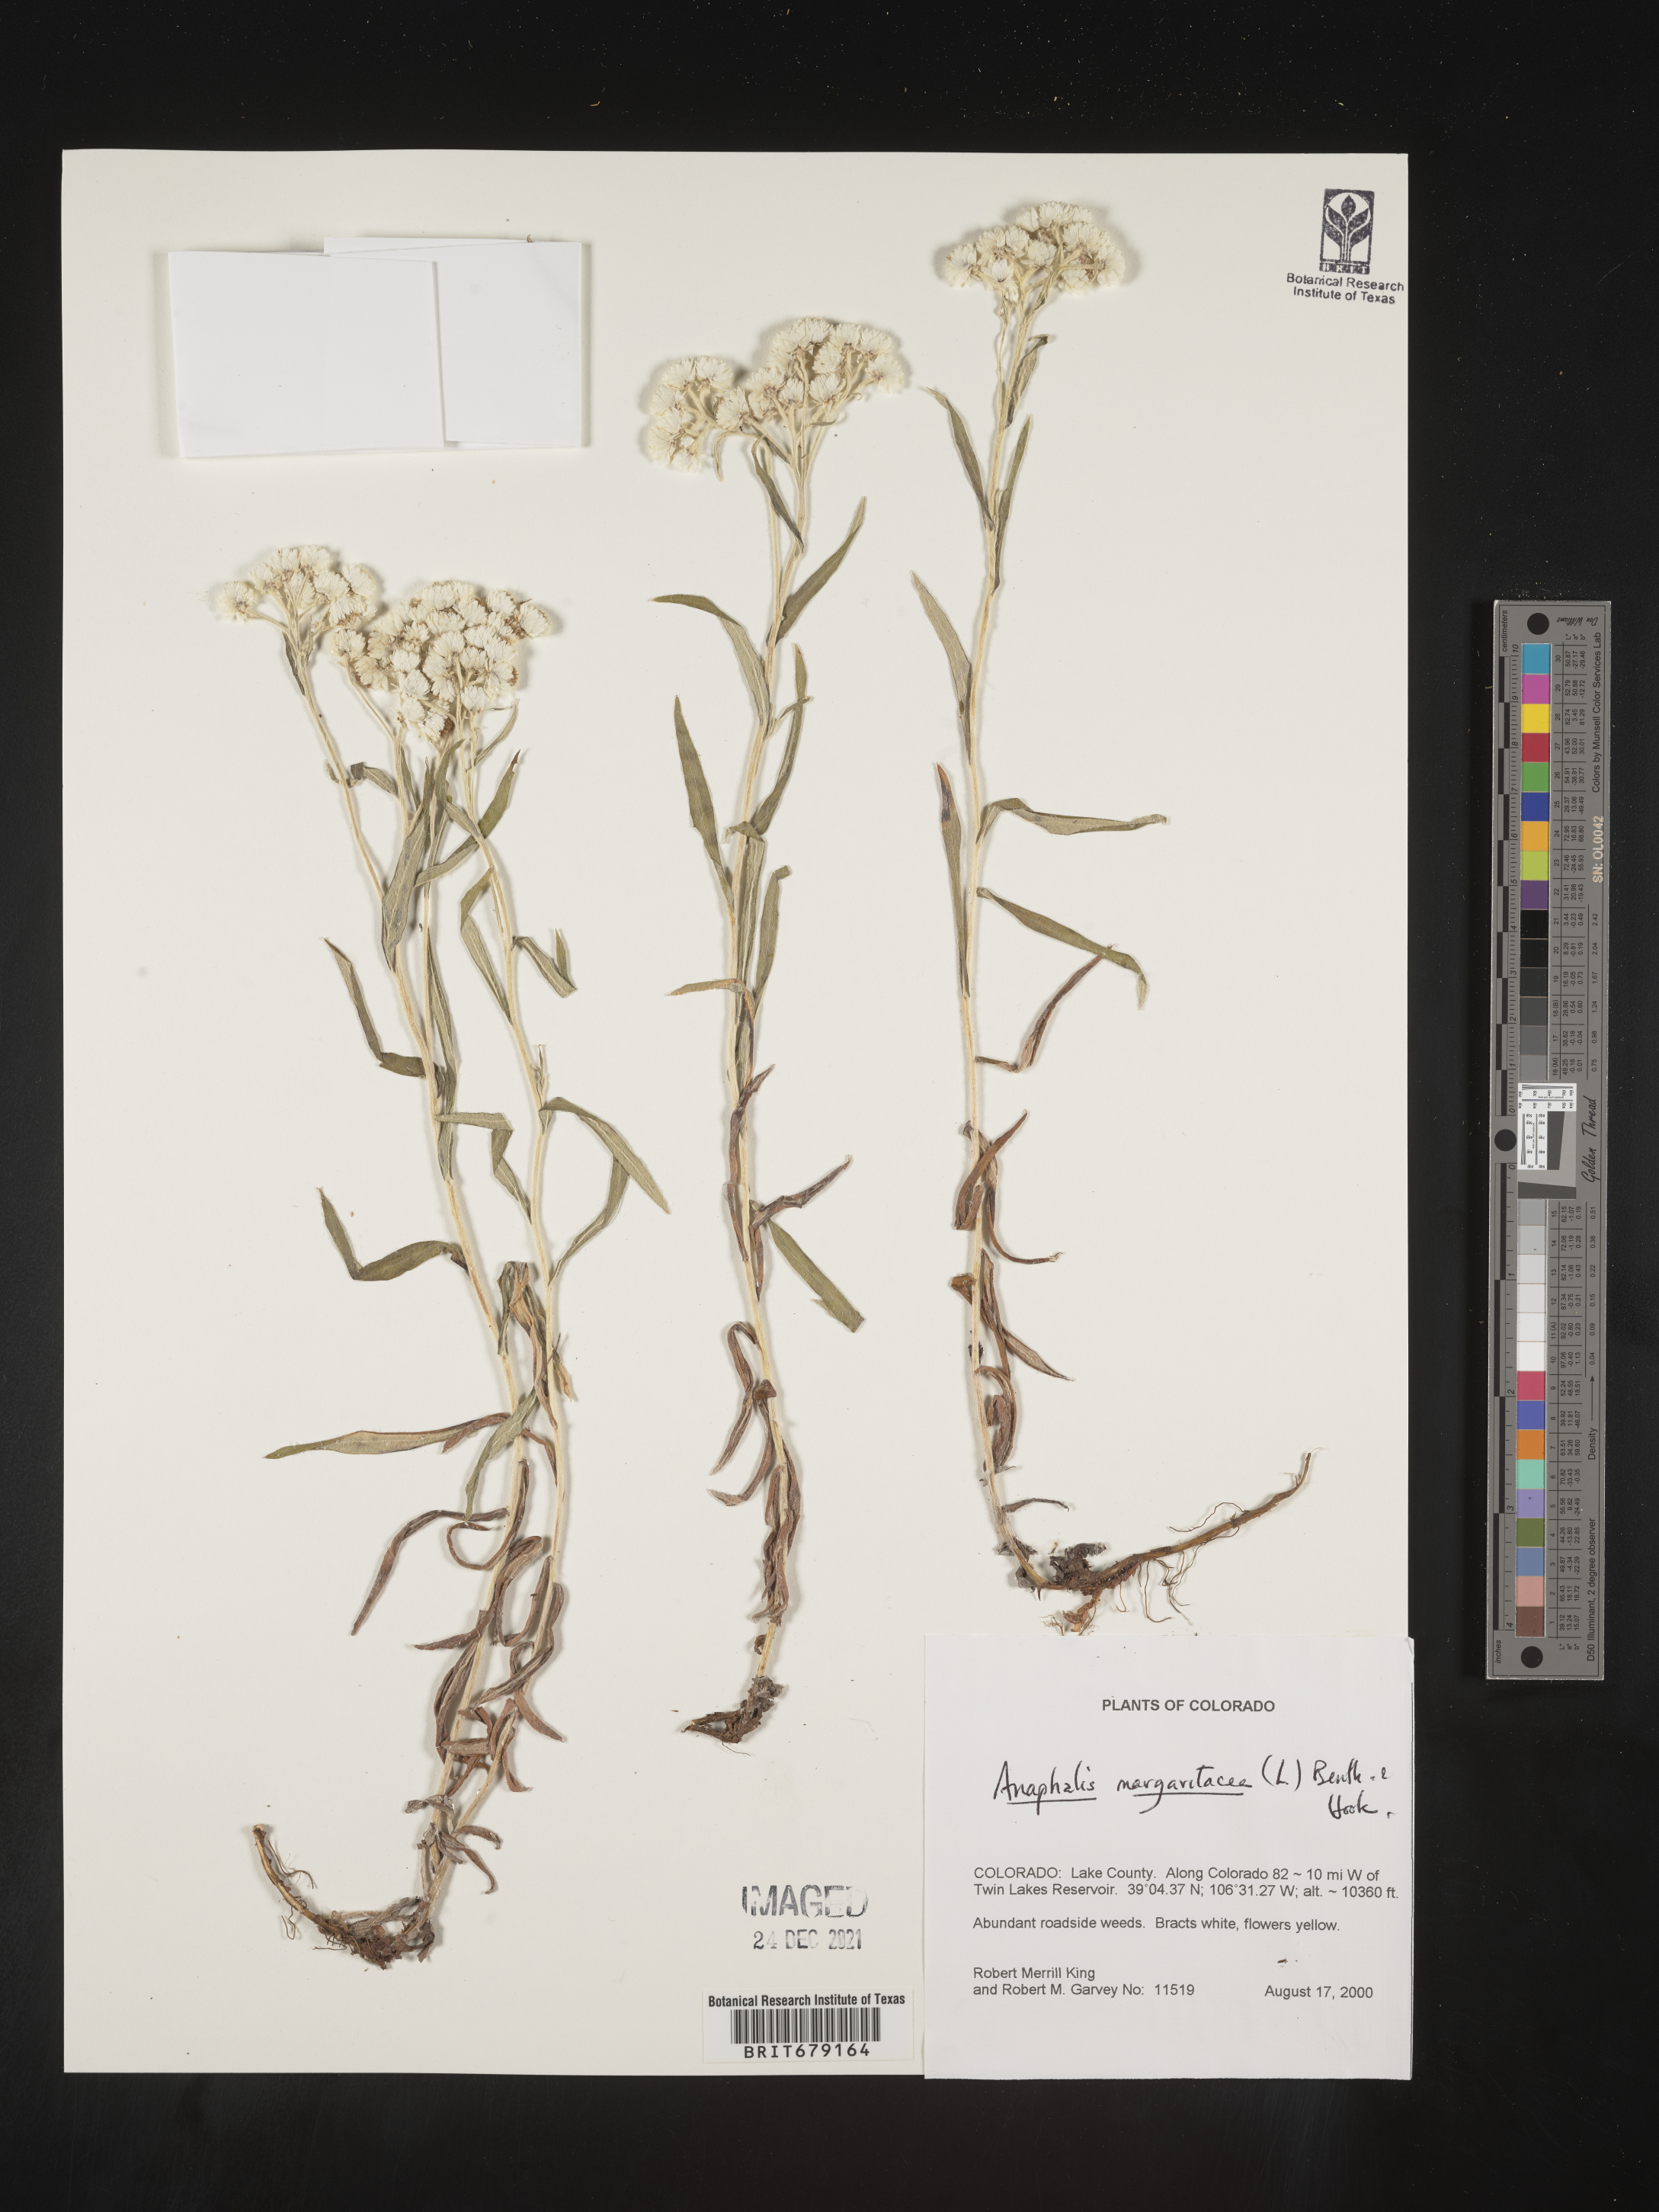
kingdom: Plantae
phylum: Tracheophyta
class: Magnoliopsida
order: Asterales
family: Asteraceae
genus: Anaphalis
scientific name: Anaphalis margaritacea
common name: Pearly everlasting
